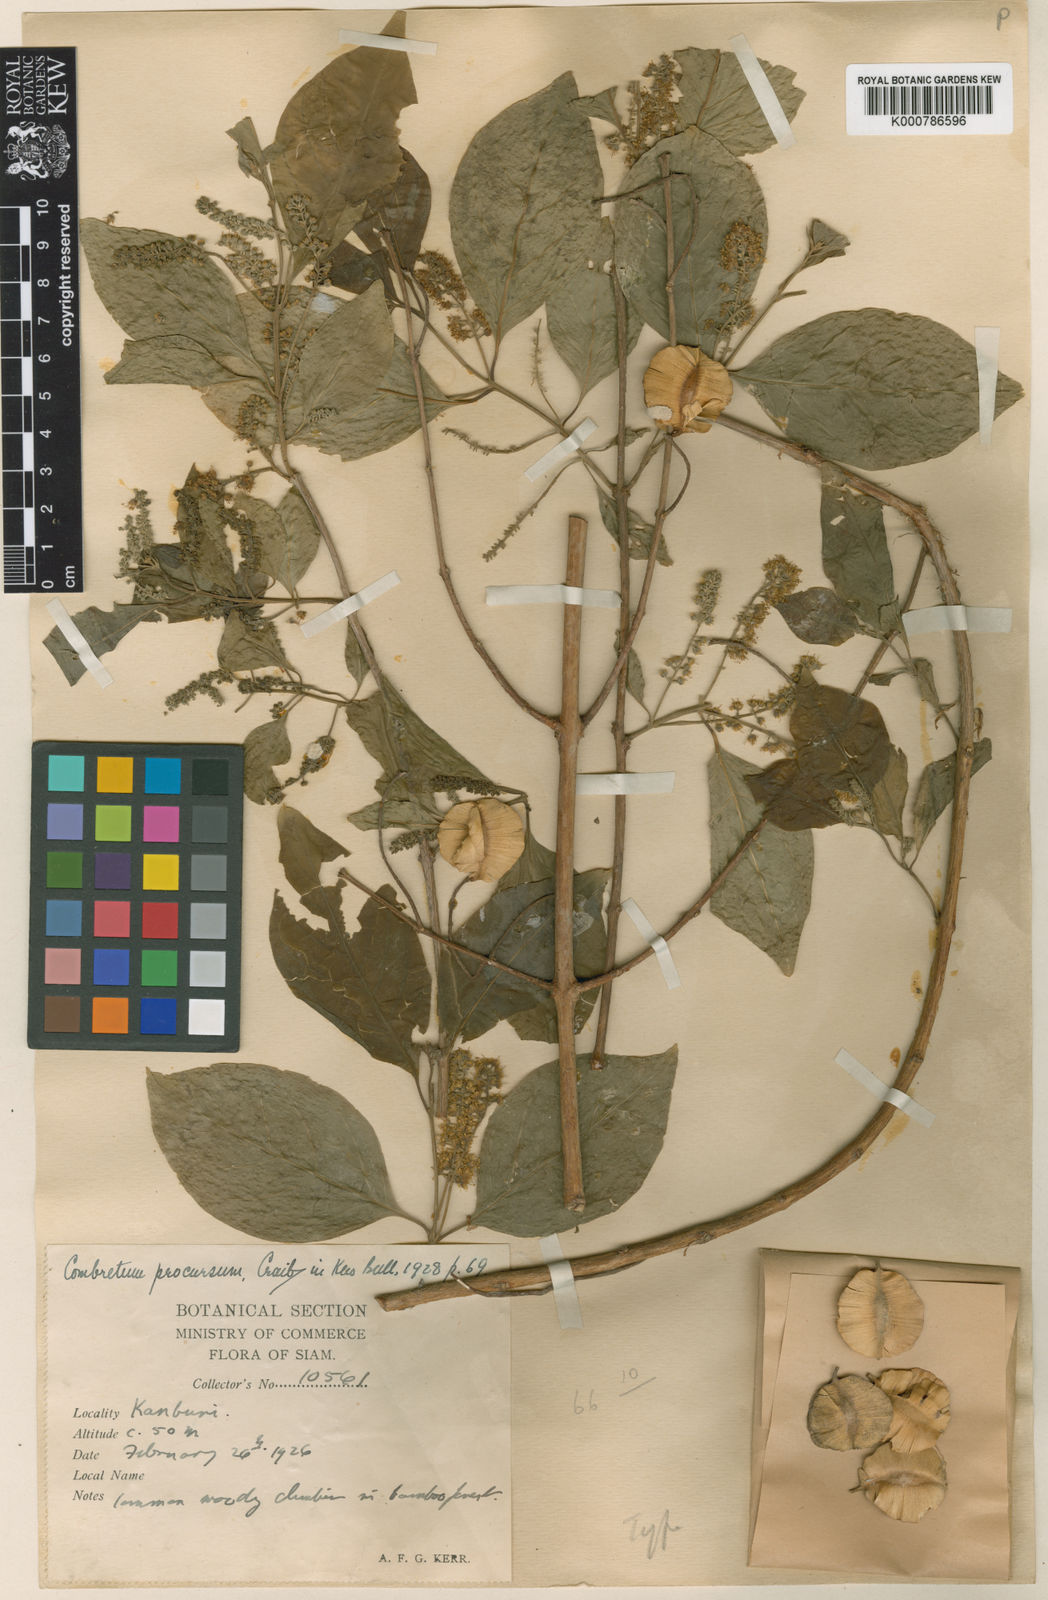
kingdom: Plantae
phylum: Tracheophyta
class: Magnoliopsida
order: Myrtales
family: Combretaceae
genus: Combretum
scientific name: Combretum procursum
